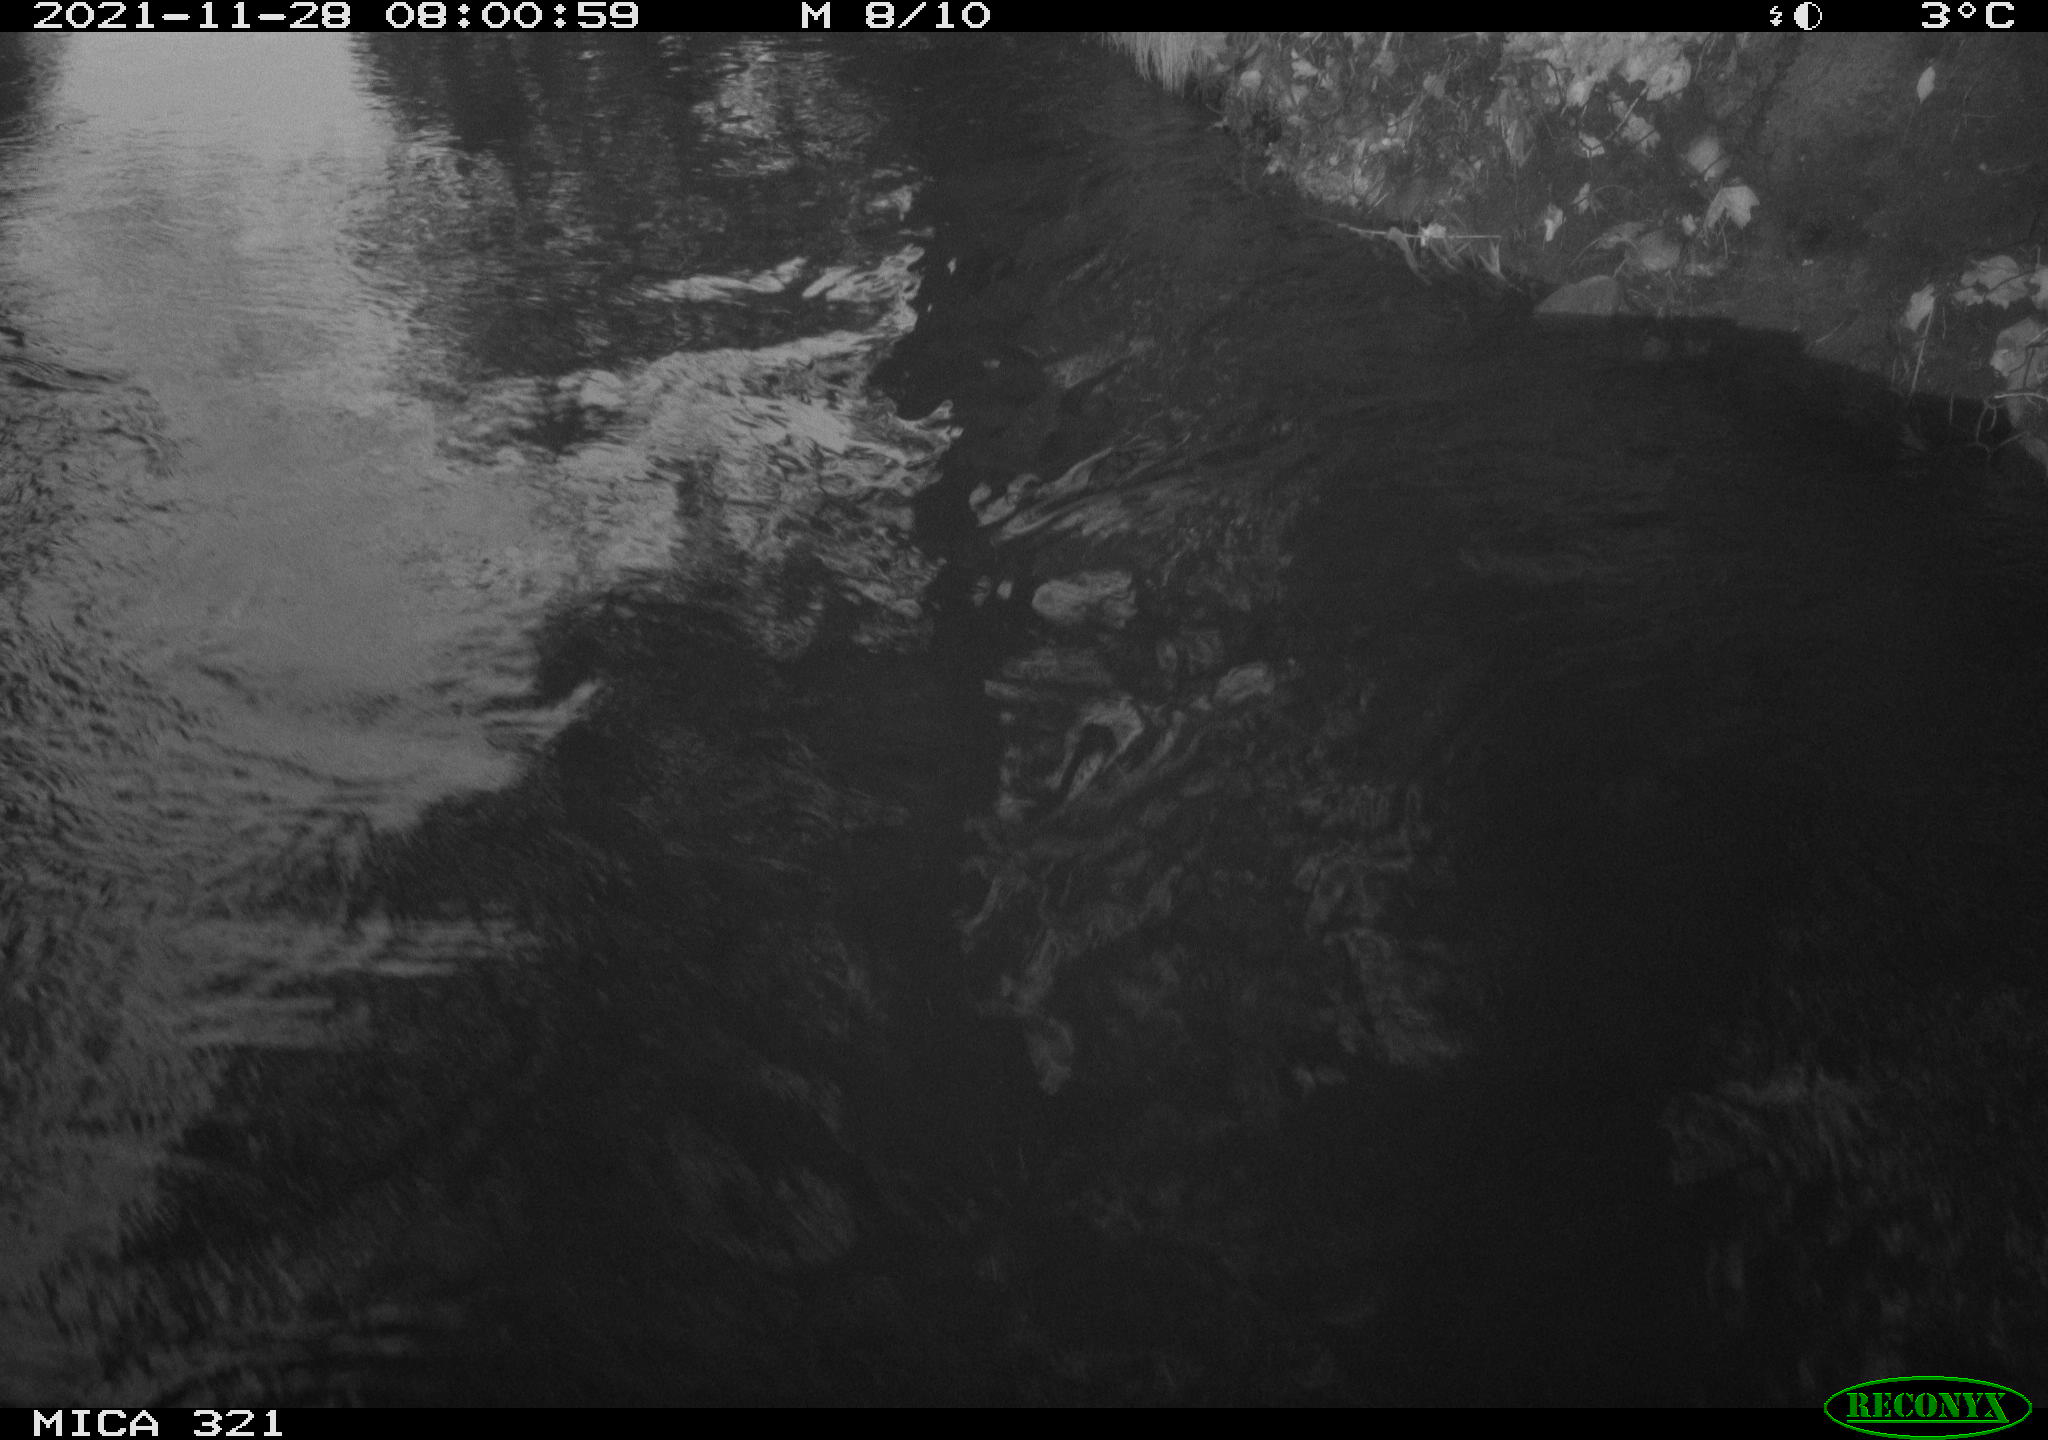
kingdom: Animalia
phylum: Chordata
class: Aves
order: Anseriformes
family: Anatidae
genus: Anas
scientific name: Anas platyrhynchos
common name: Mallard
